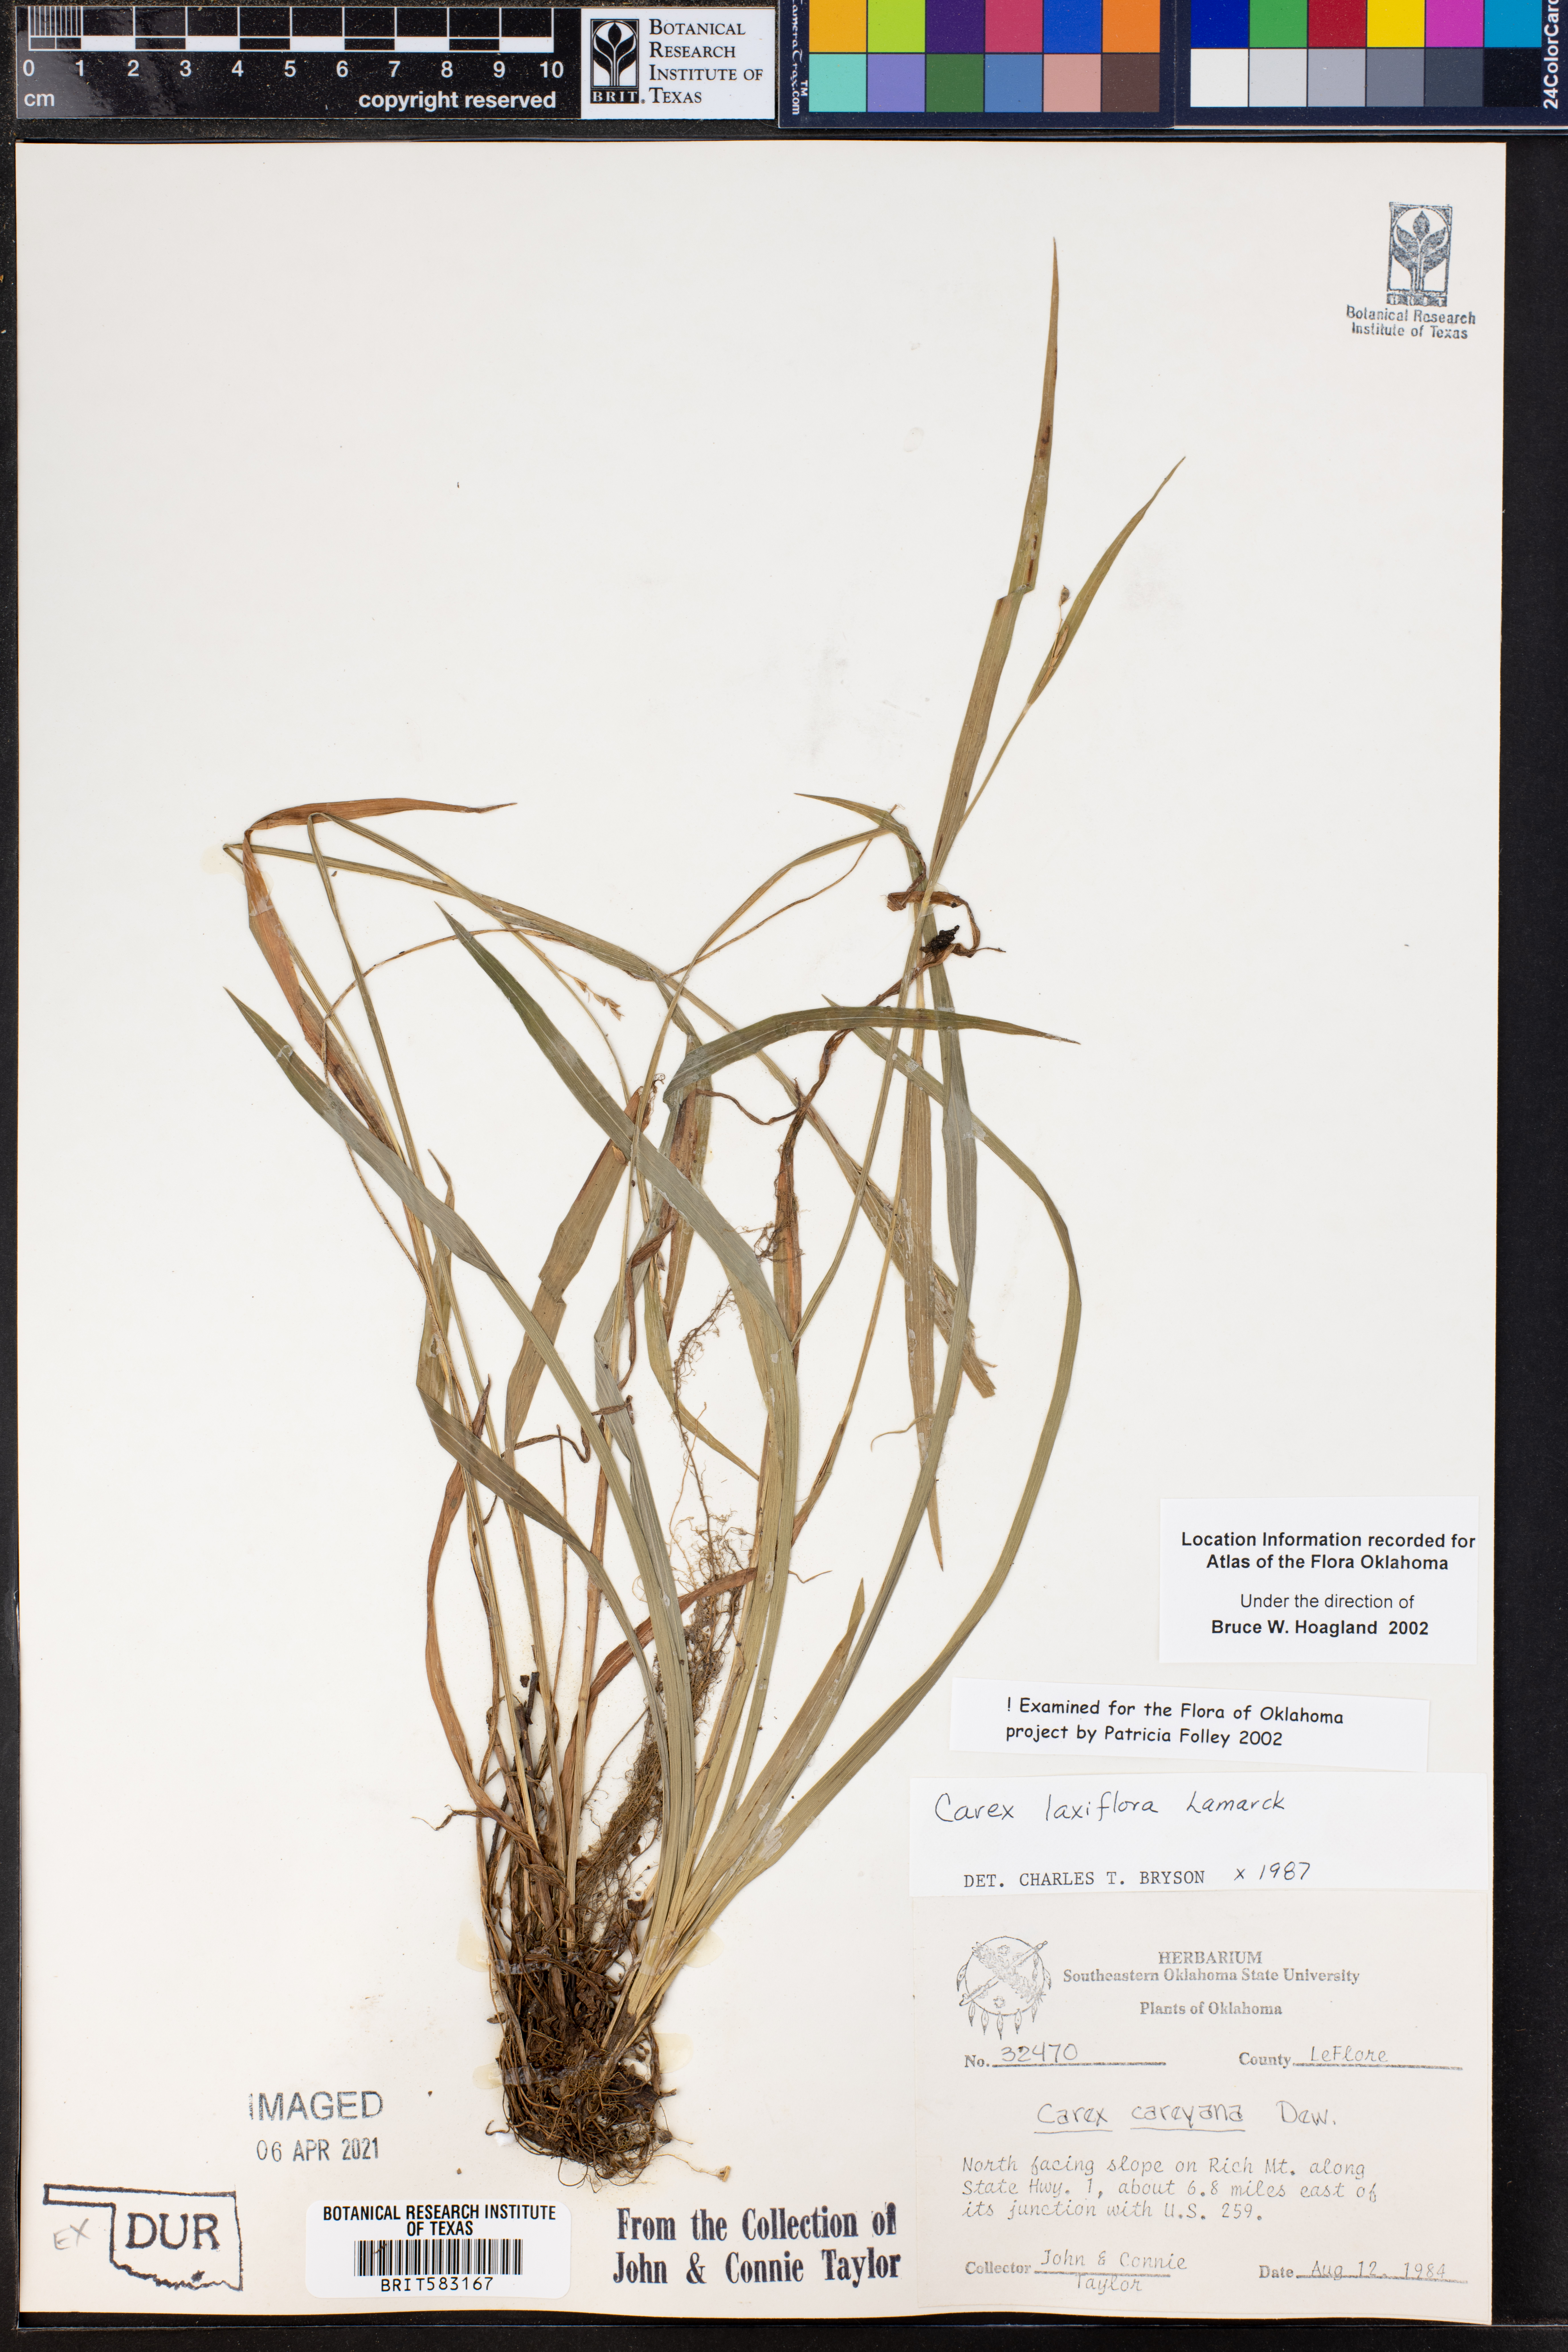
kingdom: Plantae
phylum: Tracheophyta
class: Liliopsida
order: Poales
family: Cyperaceae
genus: Carex
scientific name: Carex laxiflora
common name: Beech wood sedge
